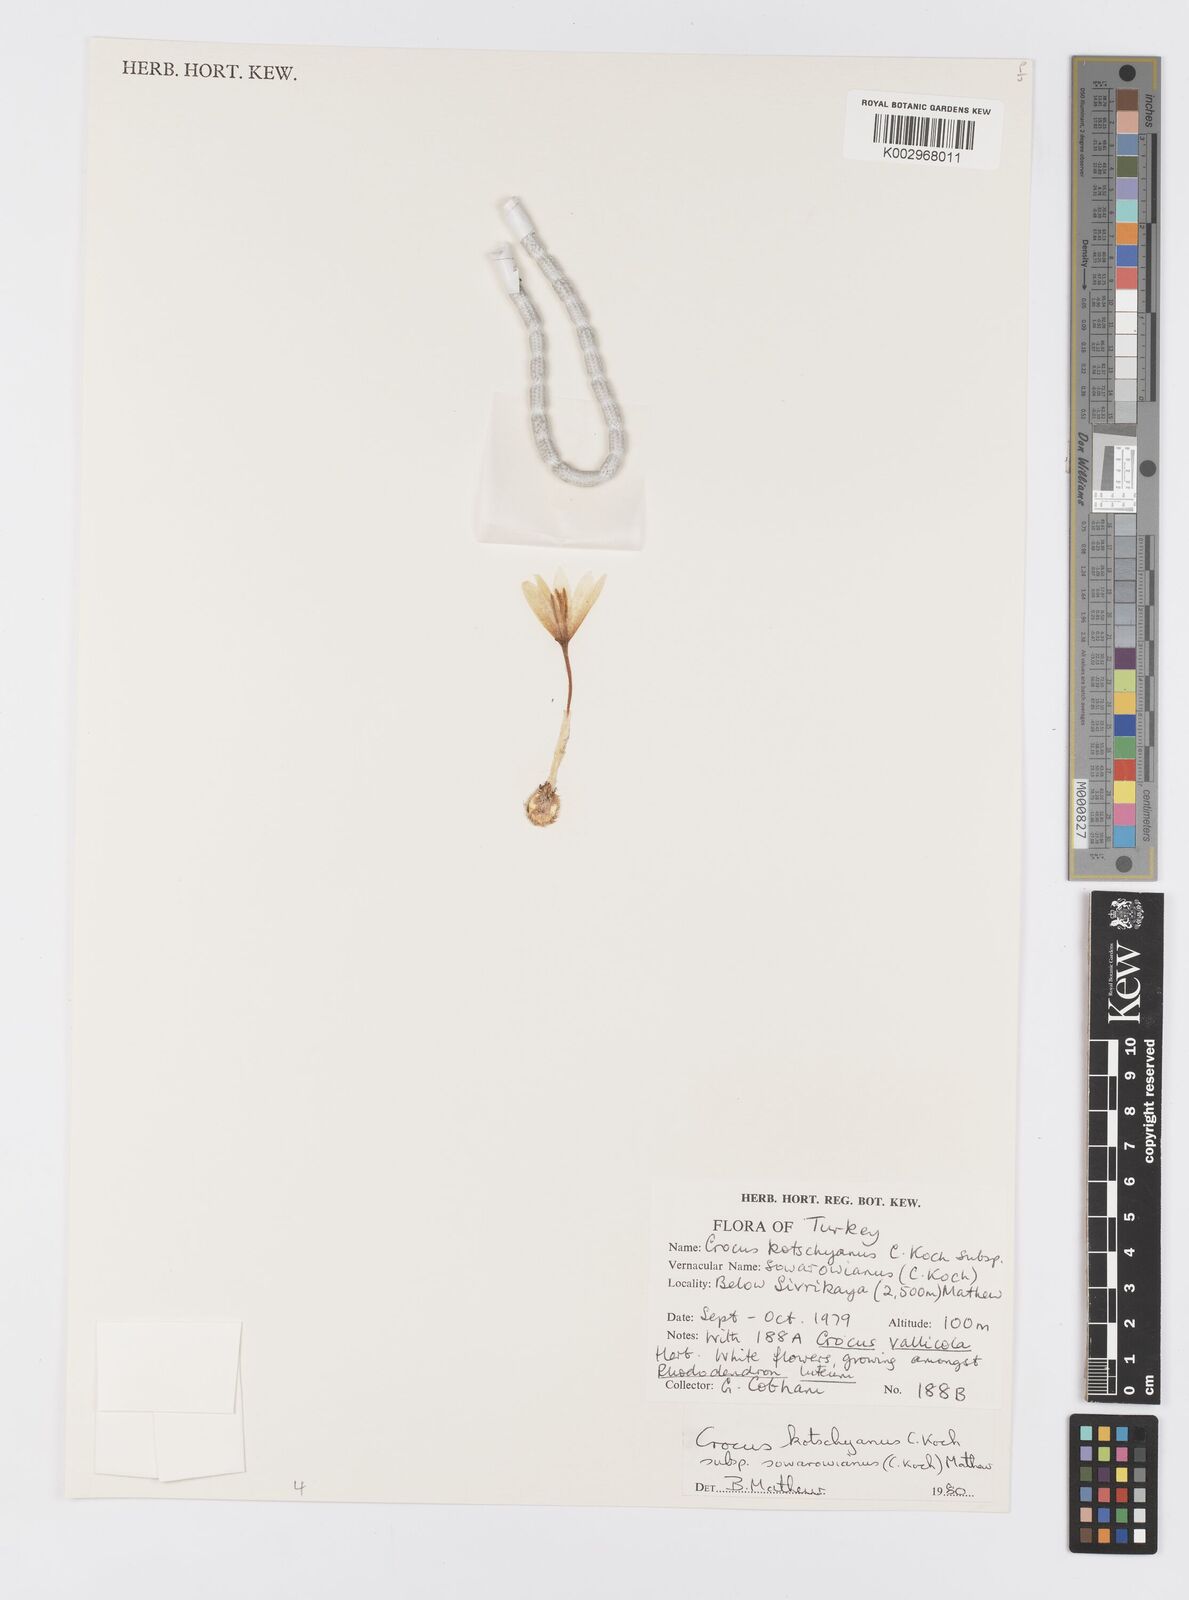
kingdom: Plantae
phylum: Tracheophyta
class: Liliopsida
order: Asparagales
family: Iridaceae
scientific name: Iridaceae
